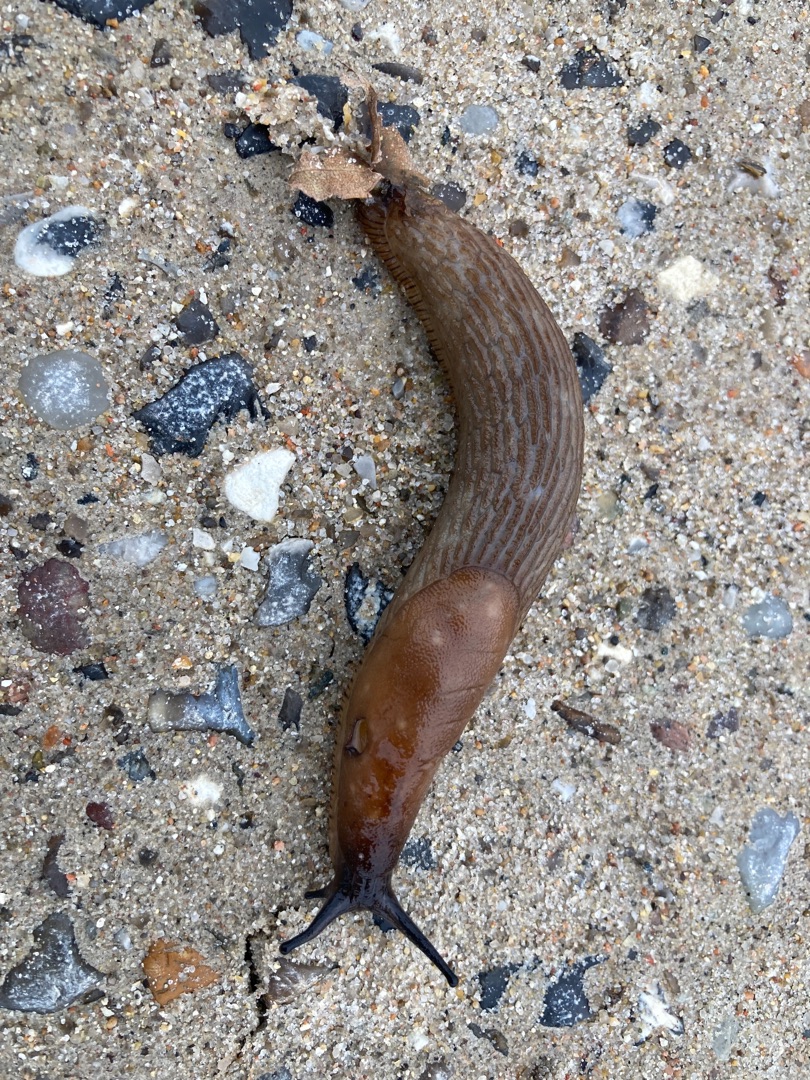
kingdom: Animalia
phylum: Mollusca
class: Gastropoda
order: Stylommatophora
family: Arionidae
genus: Arion
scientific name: Arion vulgaris
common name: Iberisk skovsnegl
